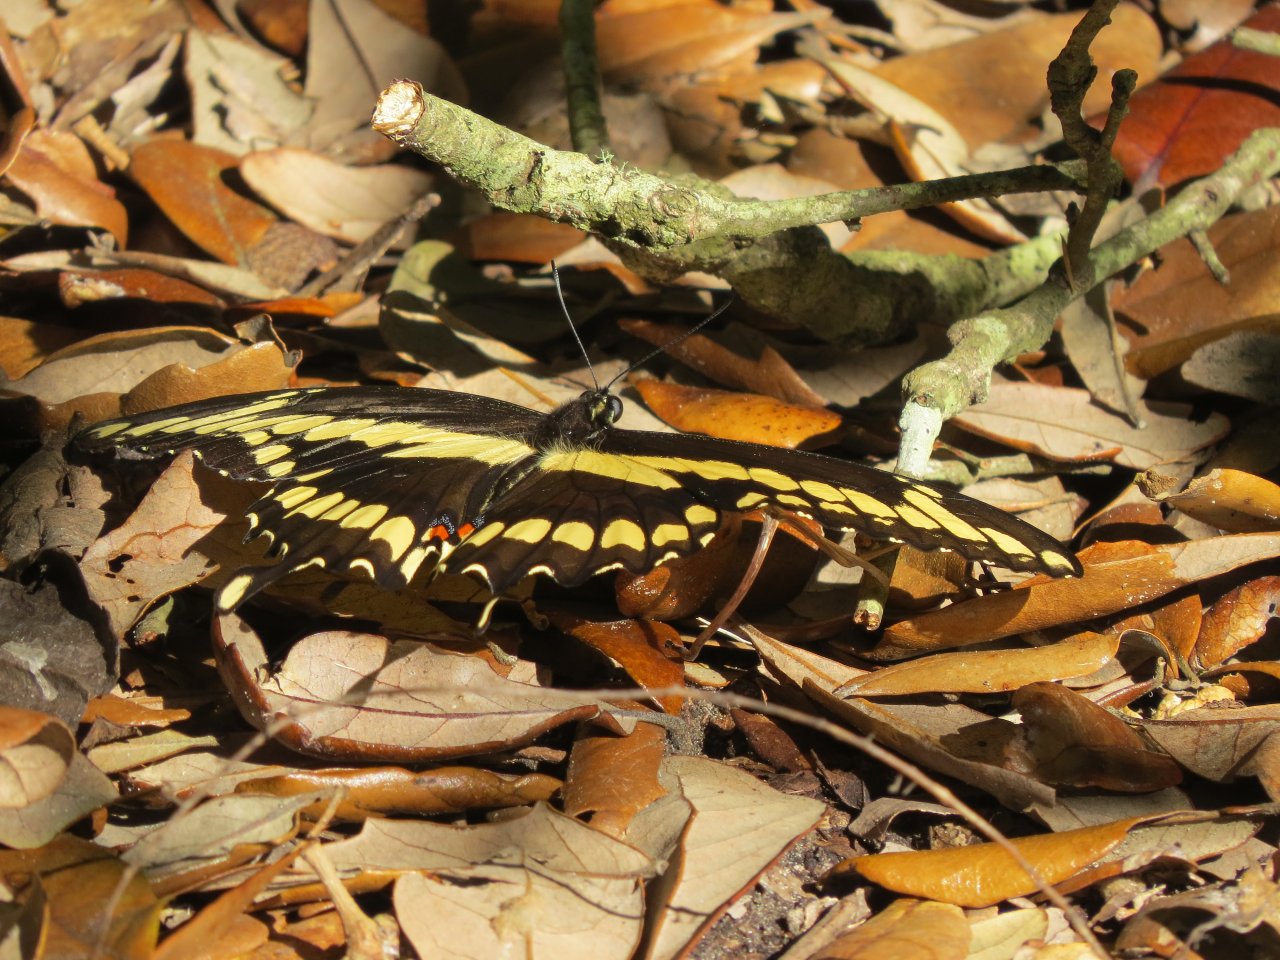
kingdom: Animalia
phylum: Arthropoda
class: Insecta
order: Lepidoptera
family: Papilionidae
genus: Papilio
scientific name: Papilio rumiko
